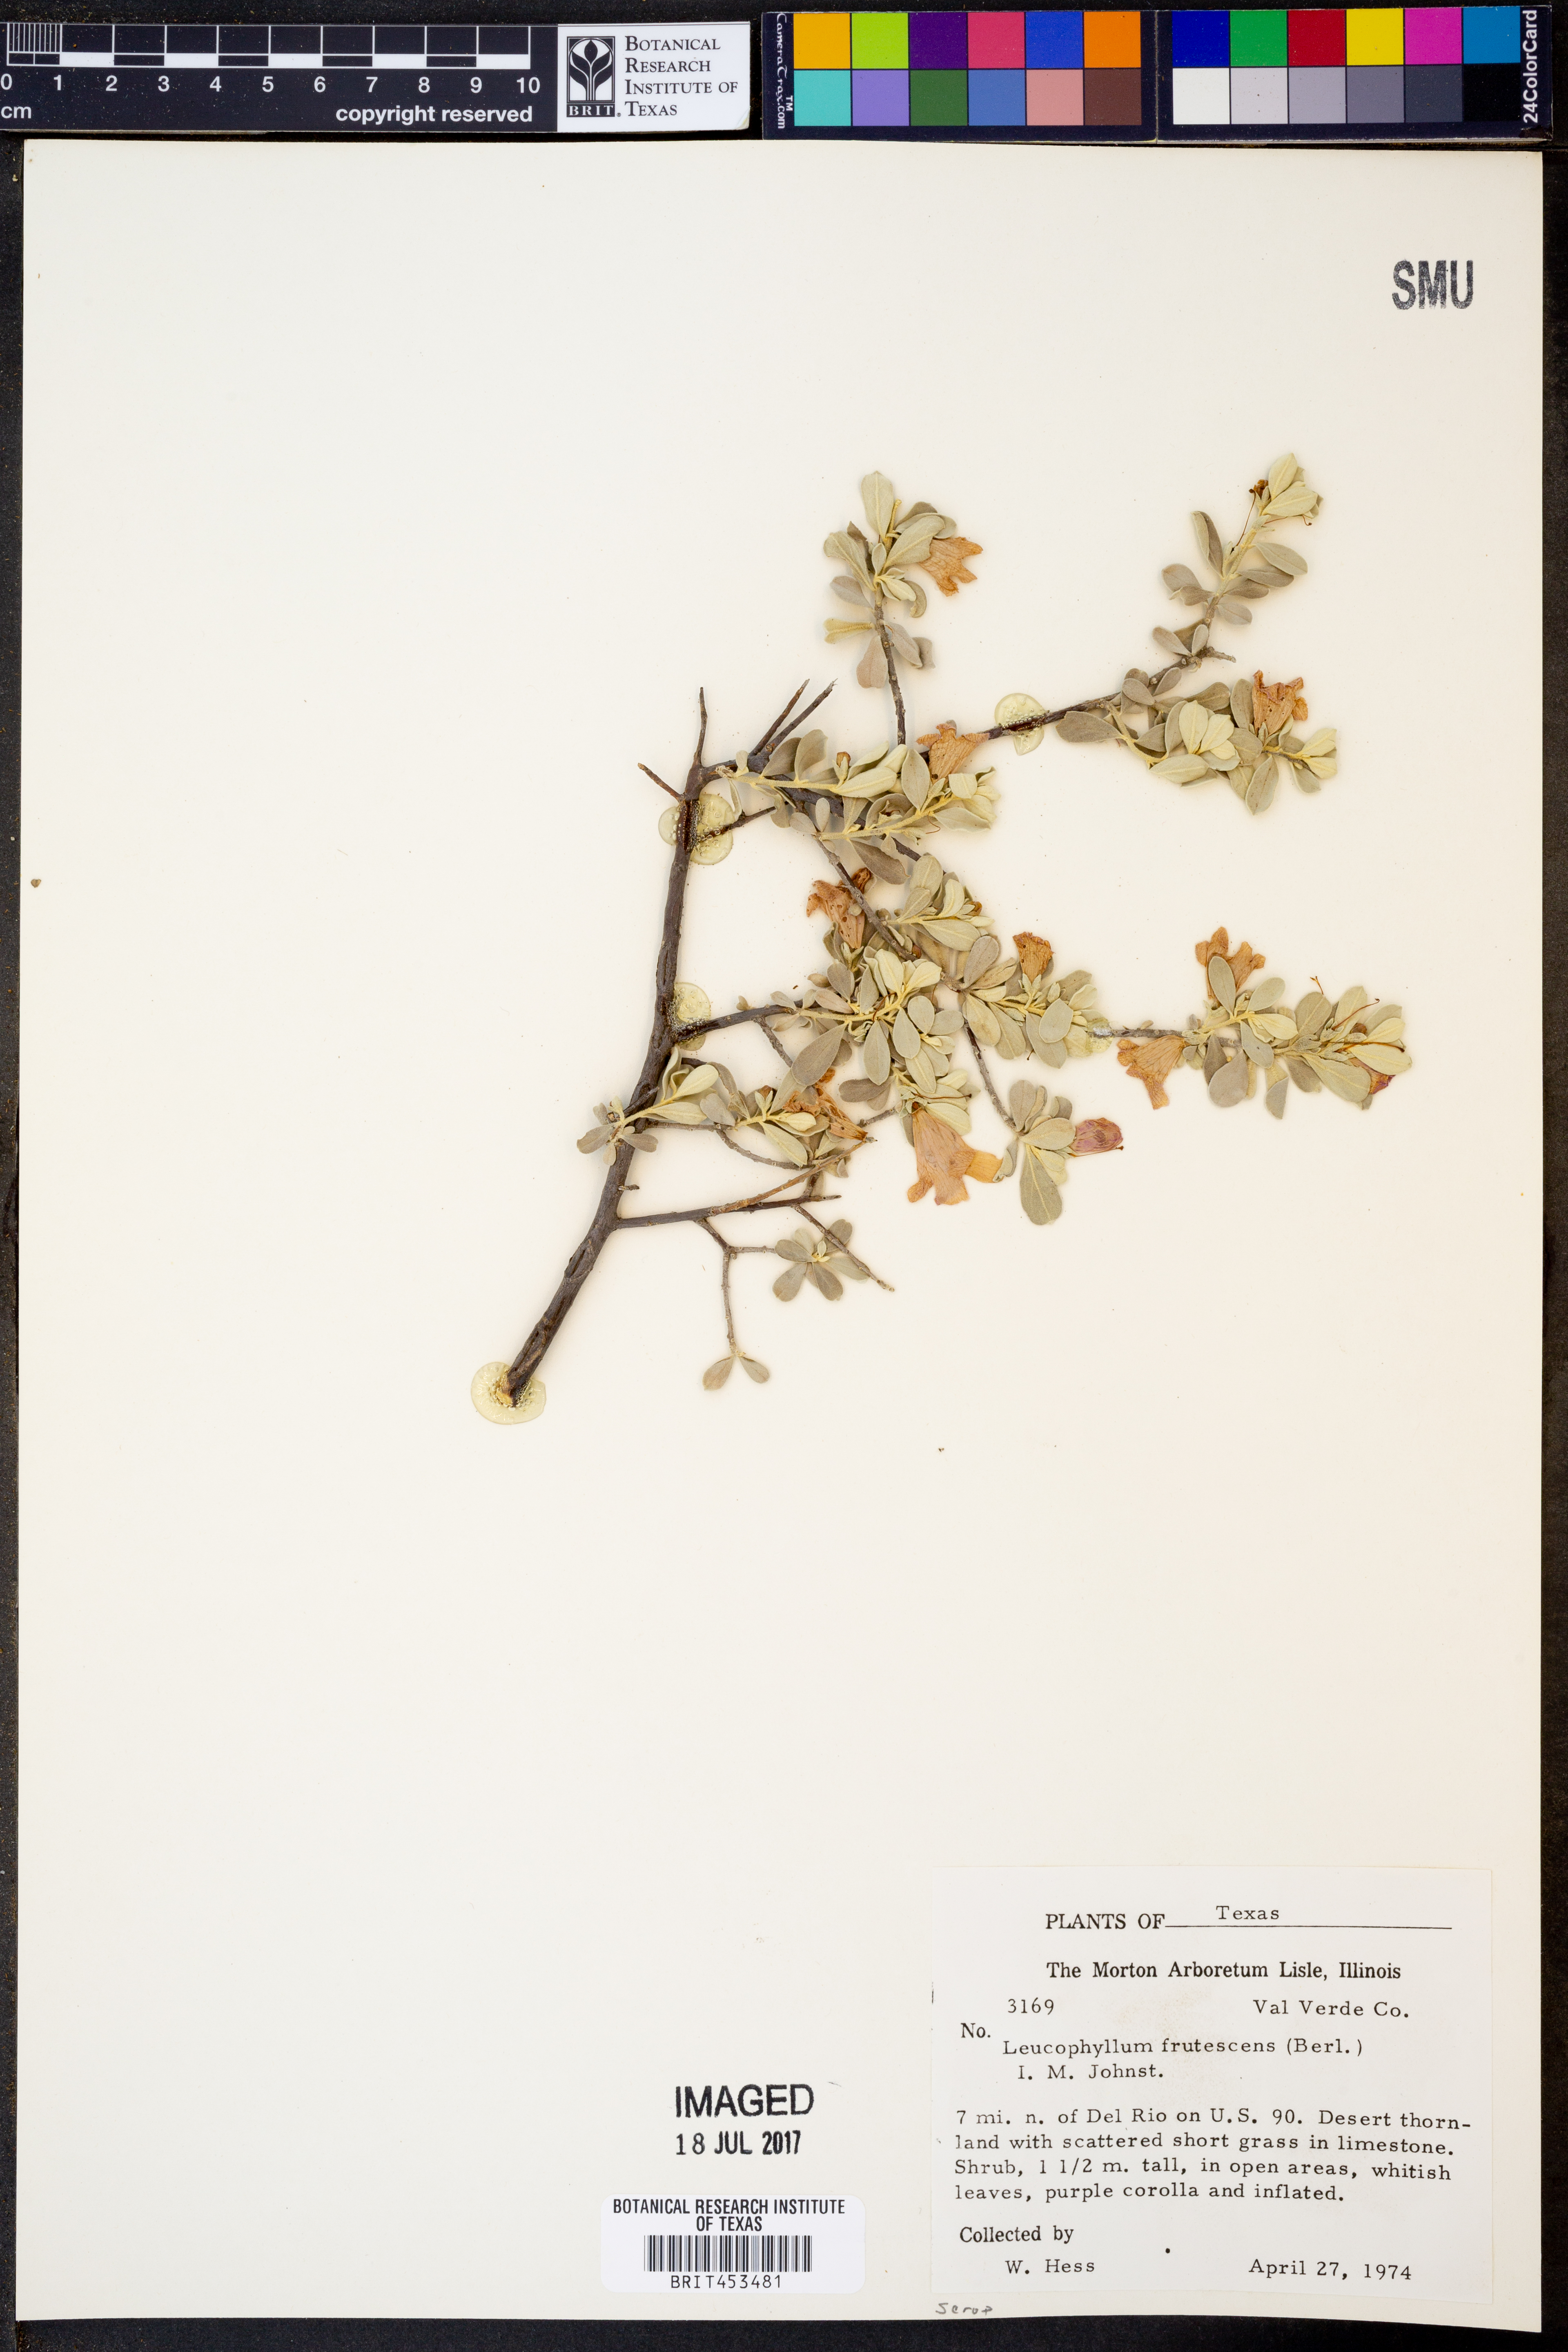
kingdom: Plantae
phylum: Tracheophyta
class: Magnoliopsida
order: Lamiales
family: Scrophulariaceae
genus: Leucophyllum
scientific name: Leucophyllum frutescens
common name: Texas silverleaf
